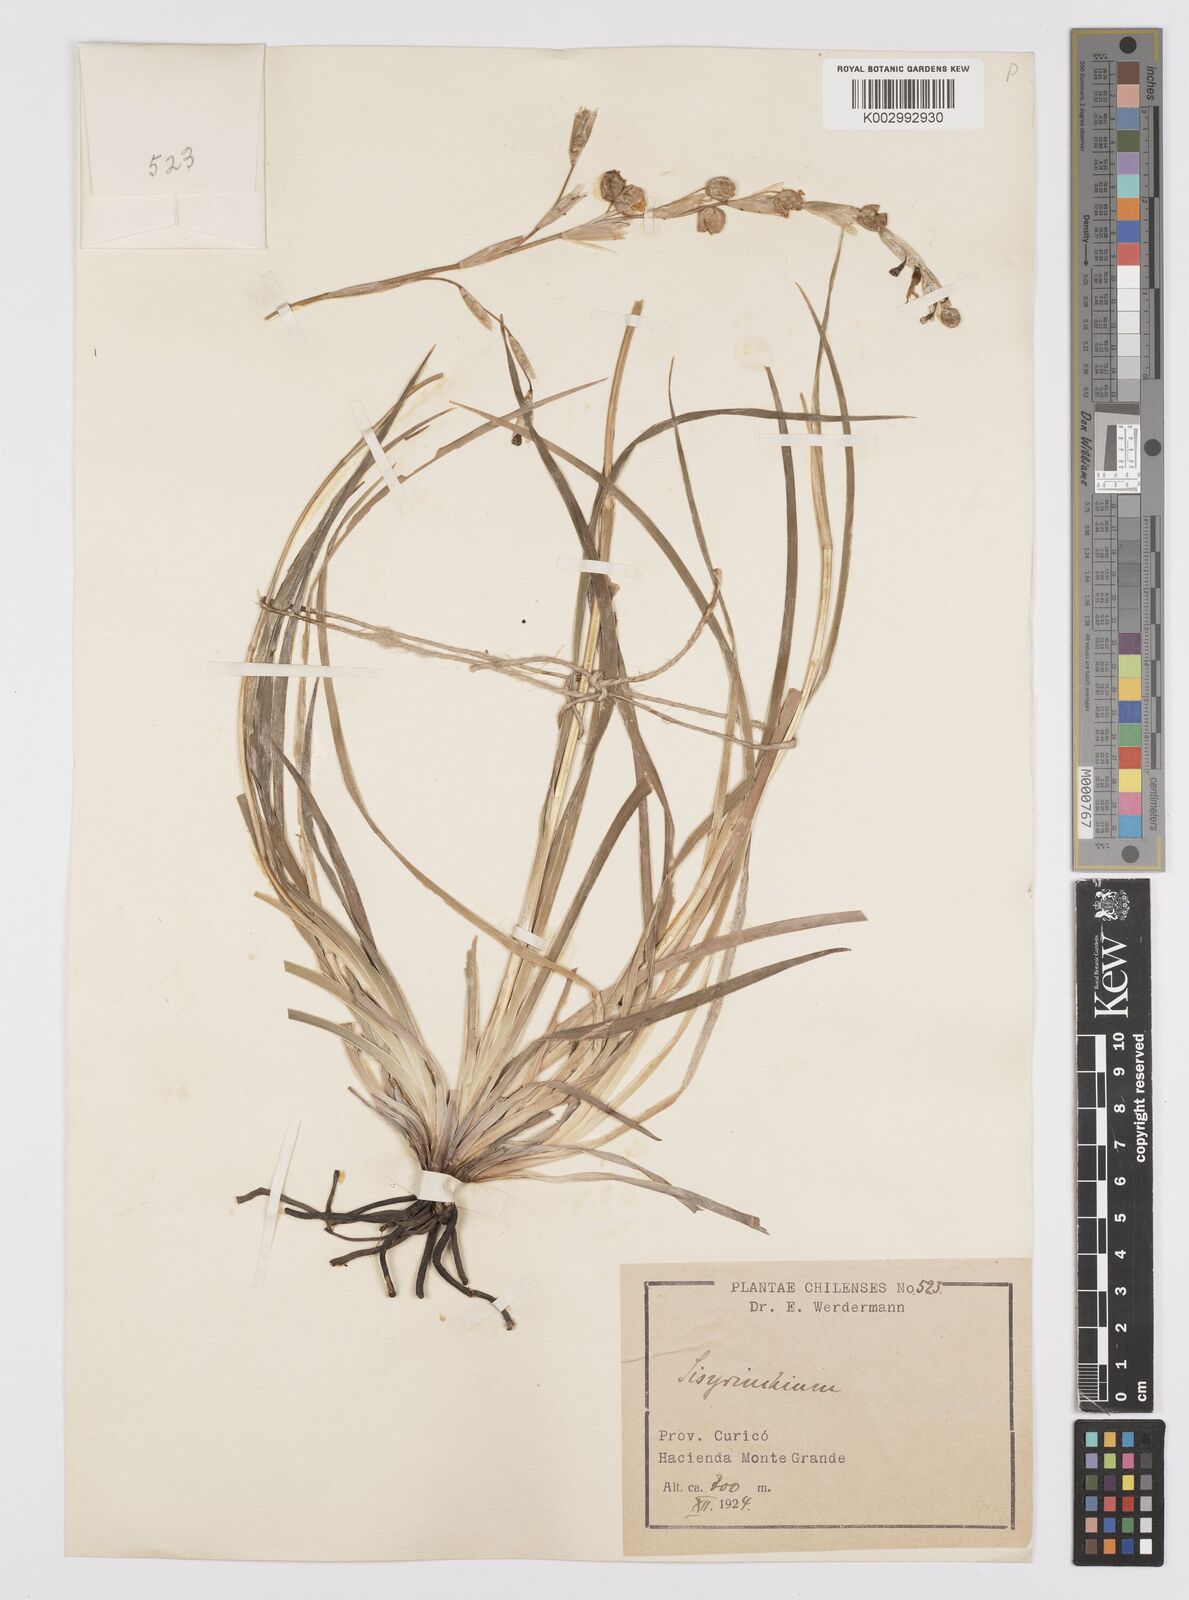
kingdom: Plantae
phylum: Tracheophyta
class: Liliopsida
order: Asparagales
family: Iridaceae
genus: Sisyrinchium
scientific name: Sisyrinchium cuspidatum
